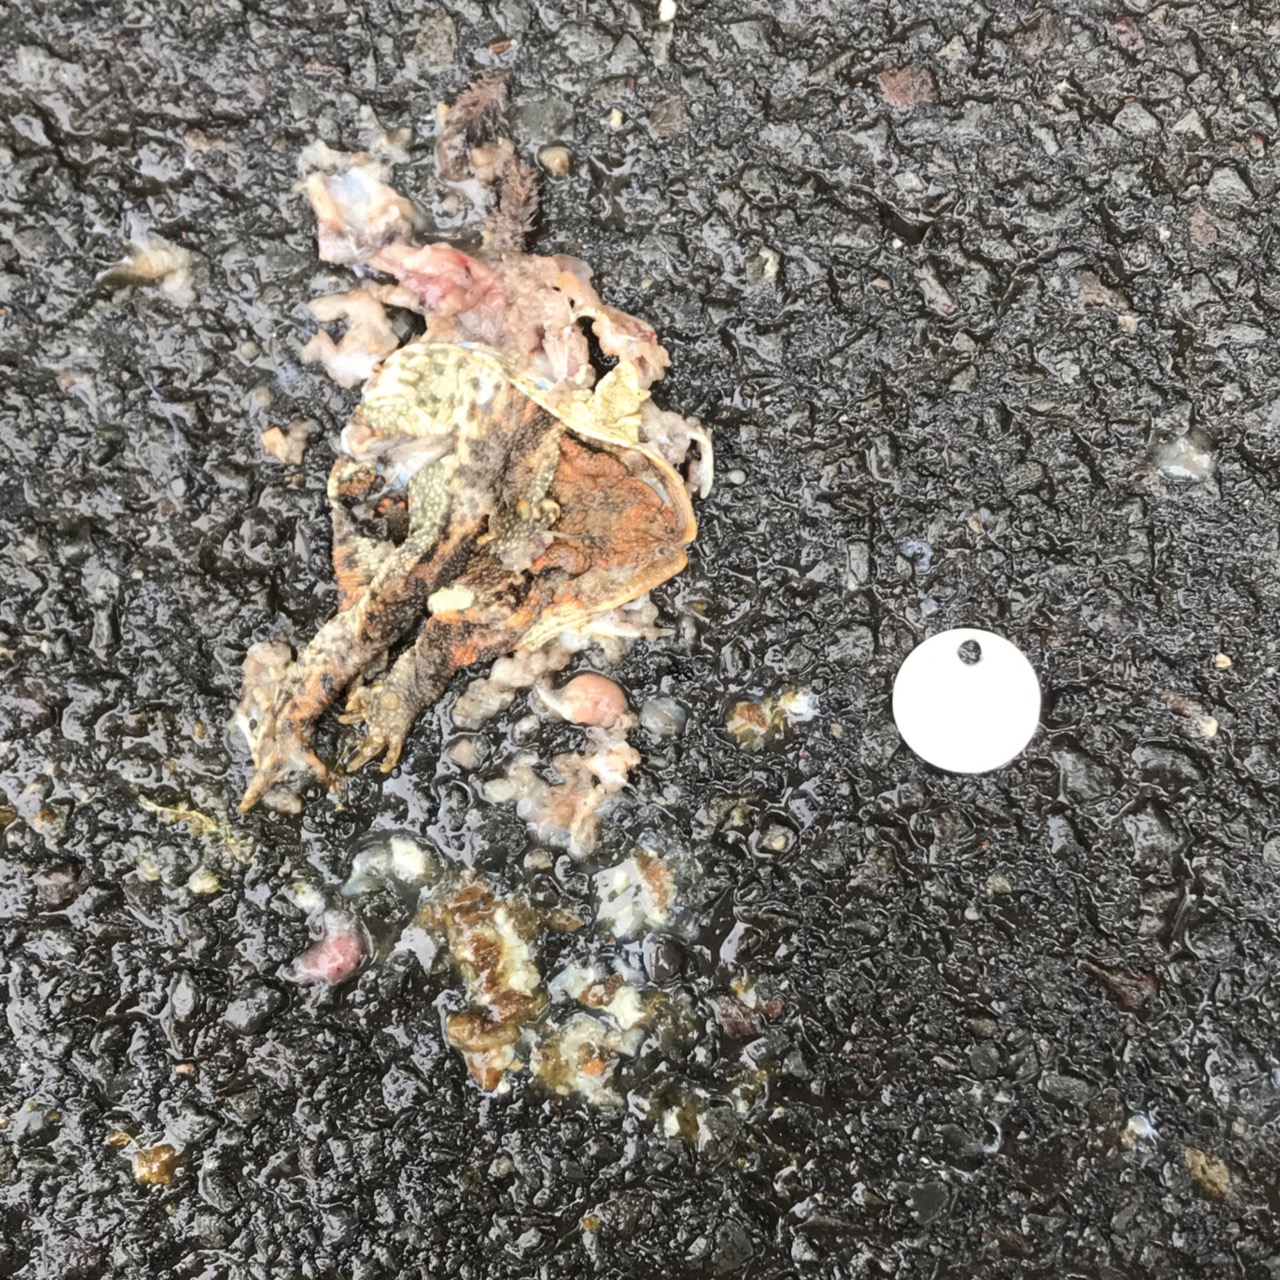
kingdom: Animalia
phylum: Chordata
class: Amphibia
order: Anura
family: Bufonidae
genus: Bufo
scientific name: Bufo bufo
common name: Common toad
